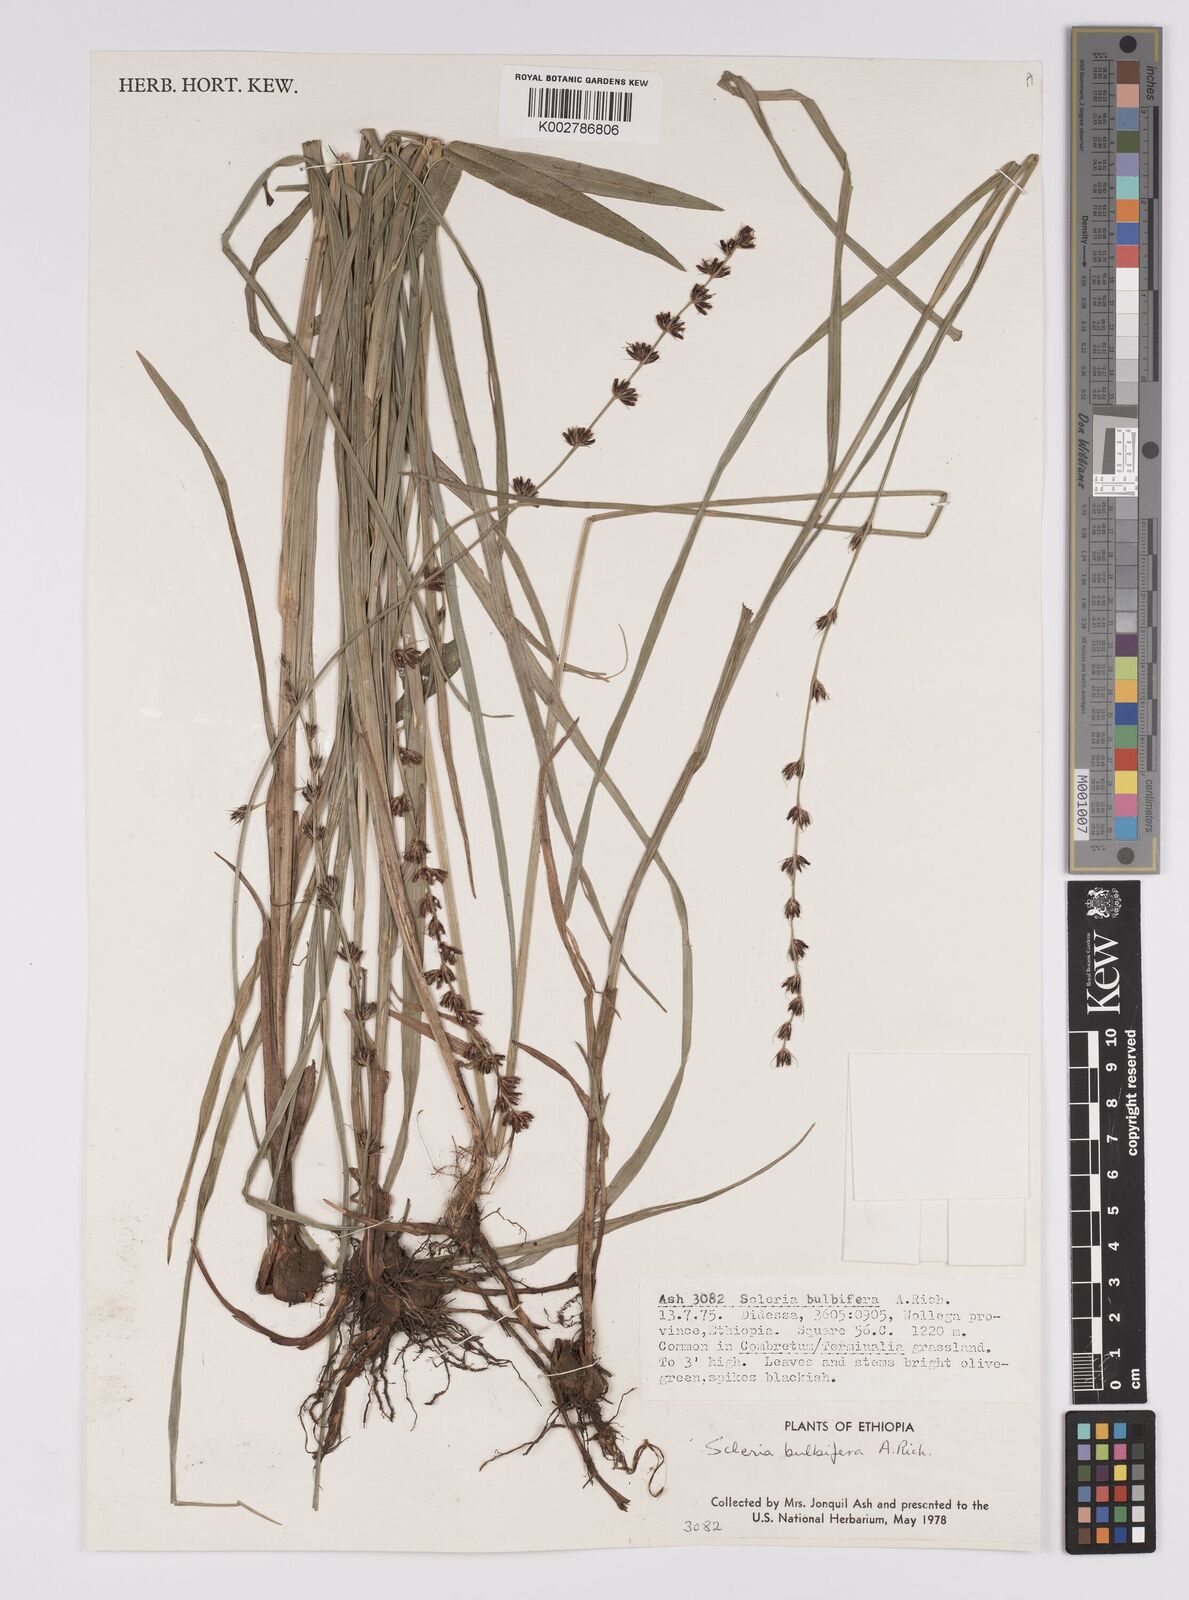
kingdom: Plantae
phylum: Tracheophyta
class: Liliopsida
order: Poales
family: Cyperaceae
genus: Scleria
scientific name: Scleria bulbifera
